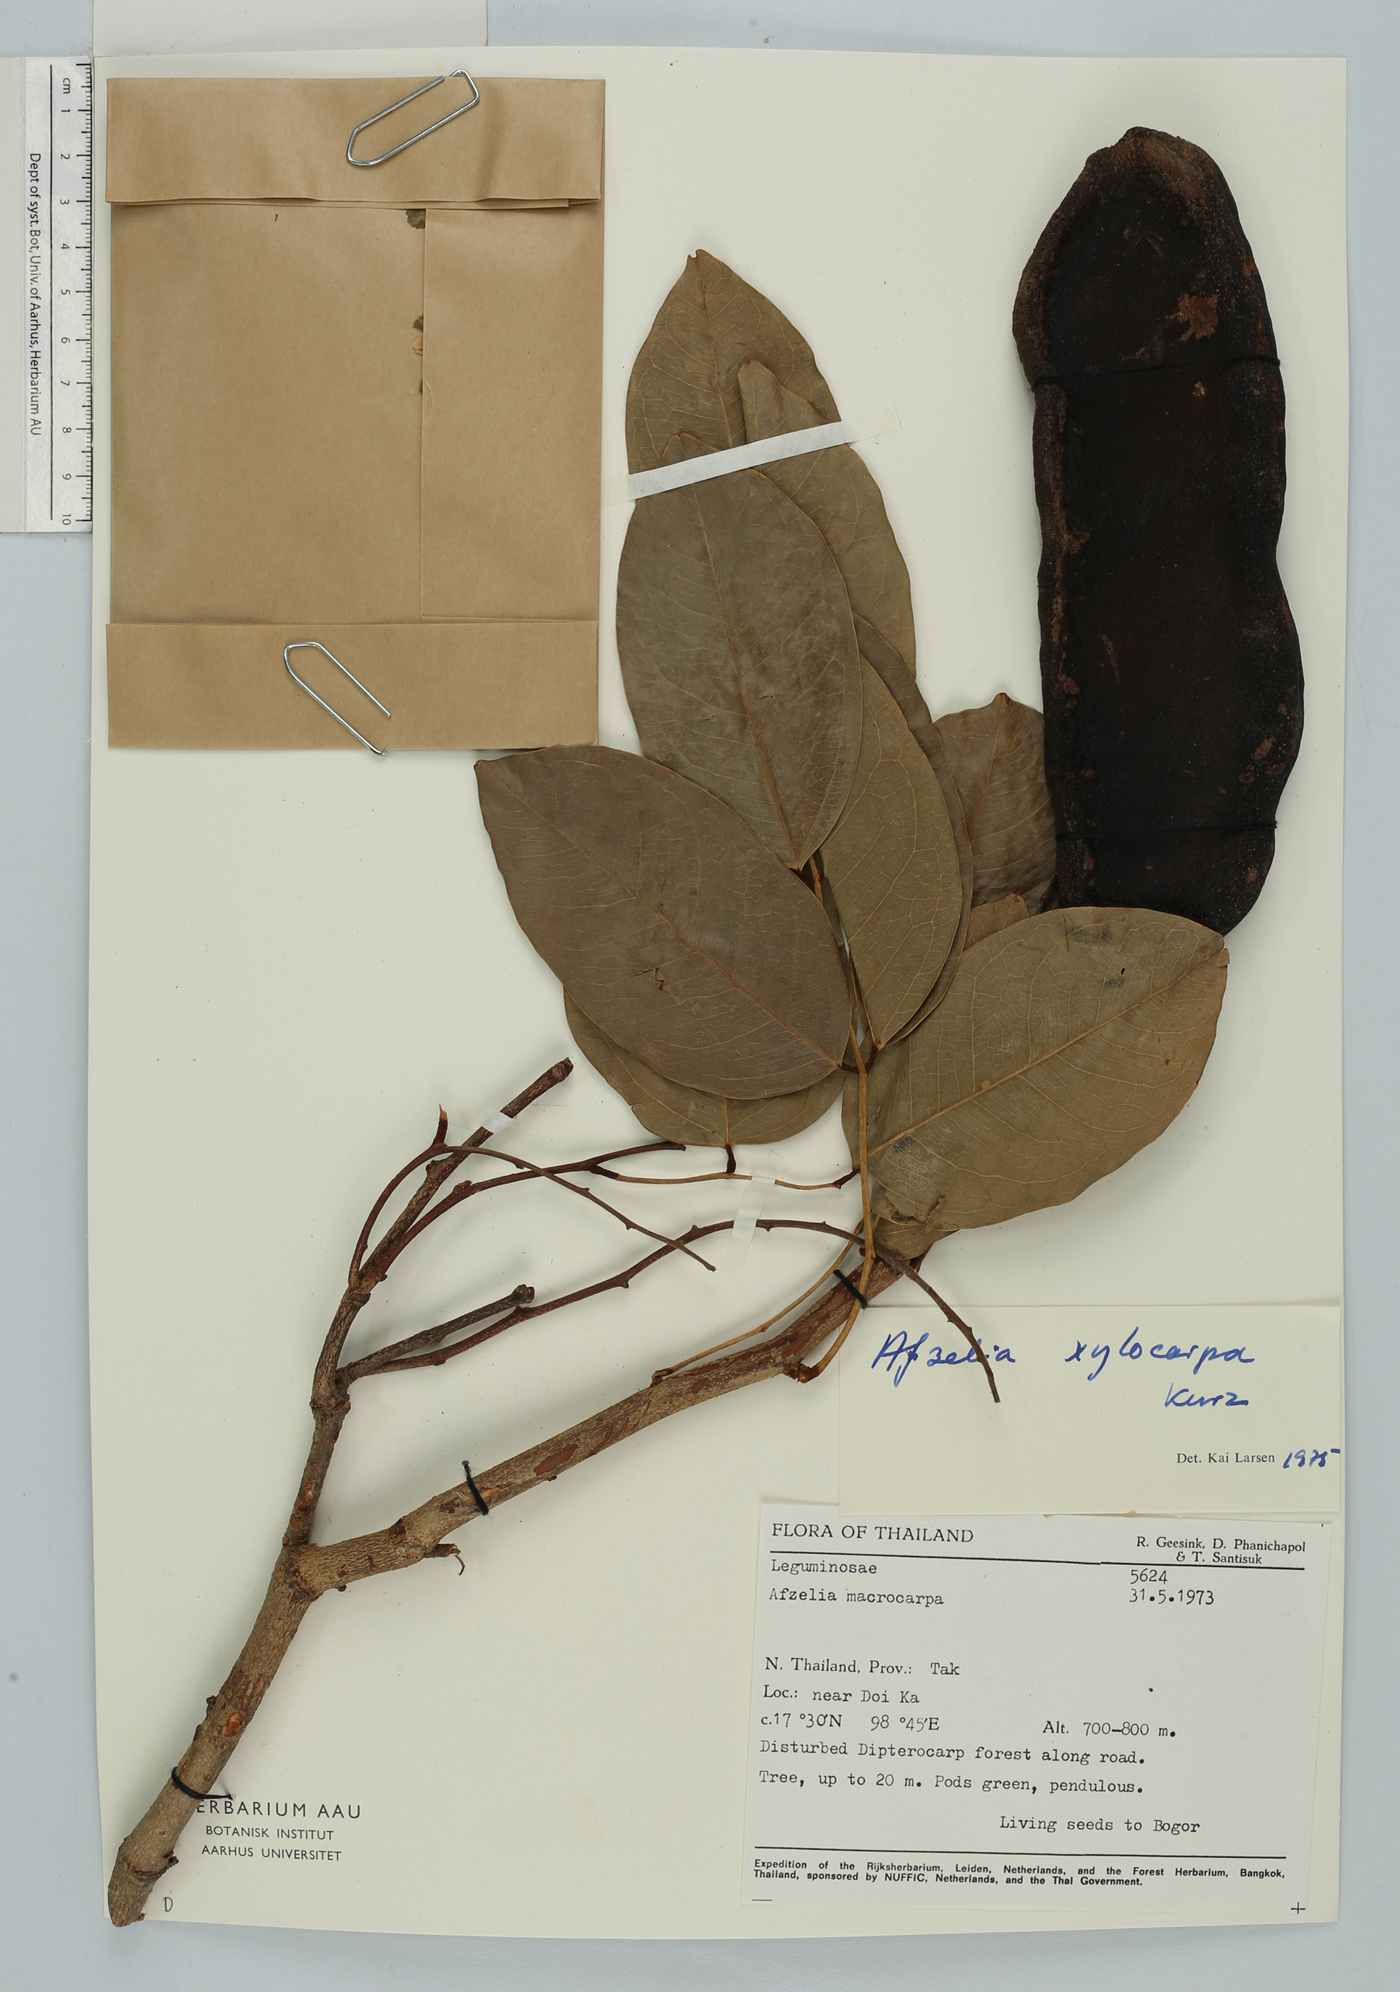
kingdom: Plantae
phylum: Tracheophyta
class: Magnoliopsida
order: Fabales
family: Fabaceae
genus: Afzelia
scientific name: Afzelia xylocarpa
